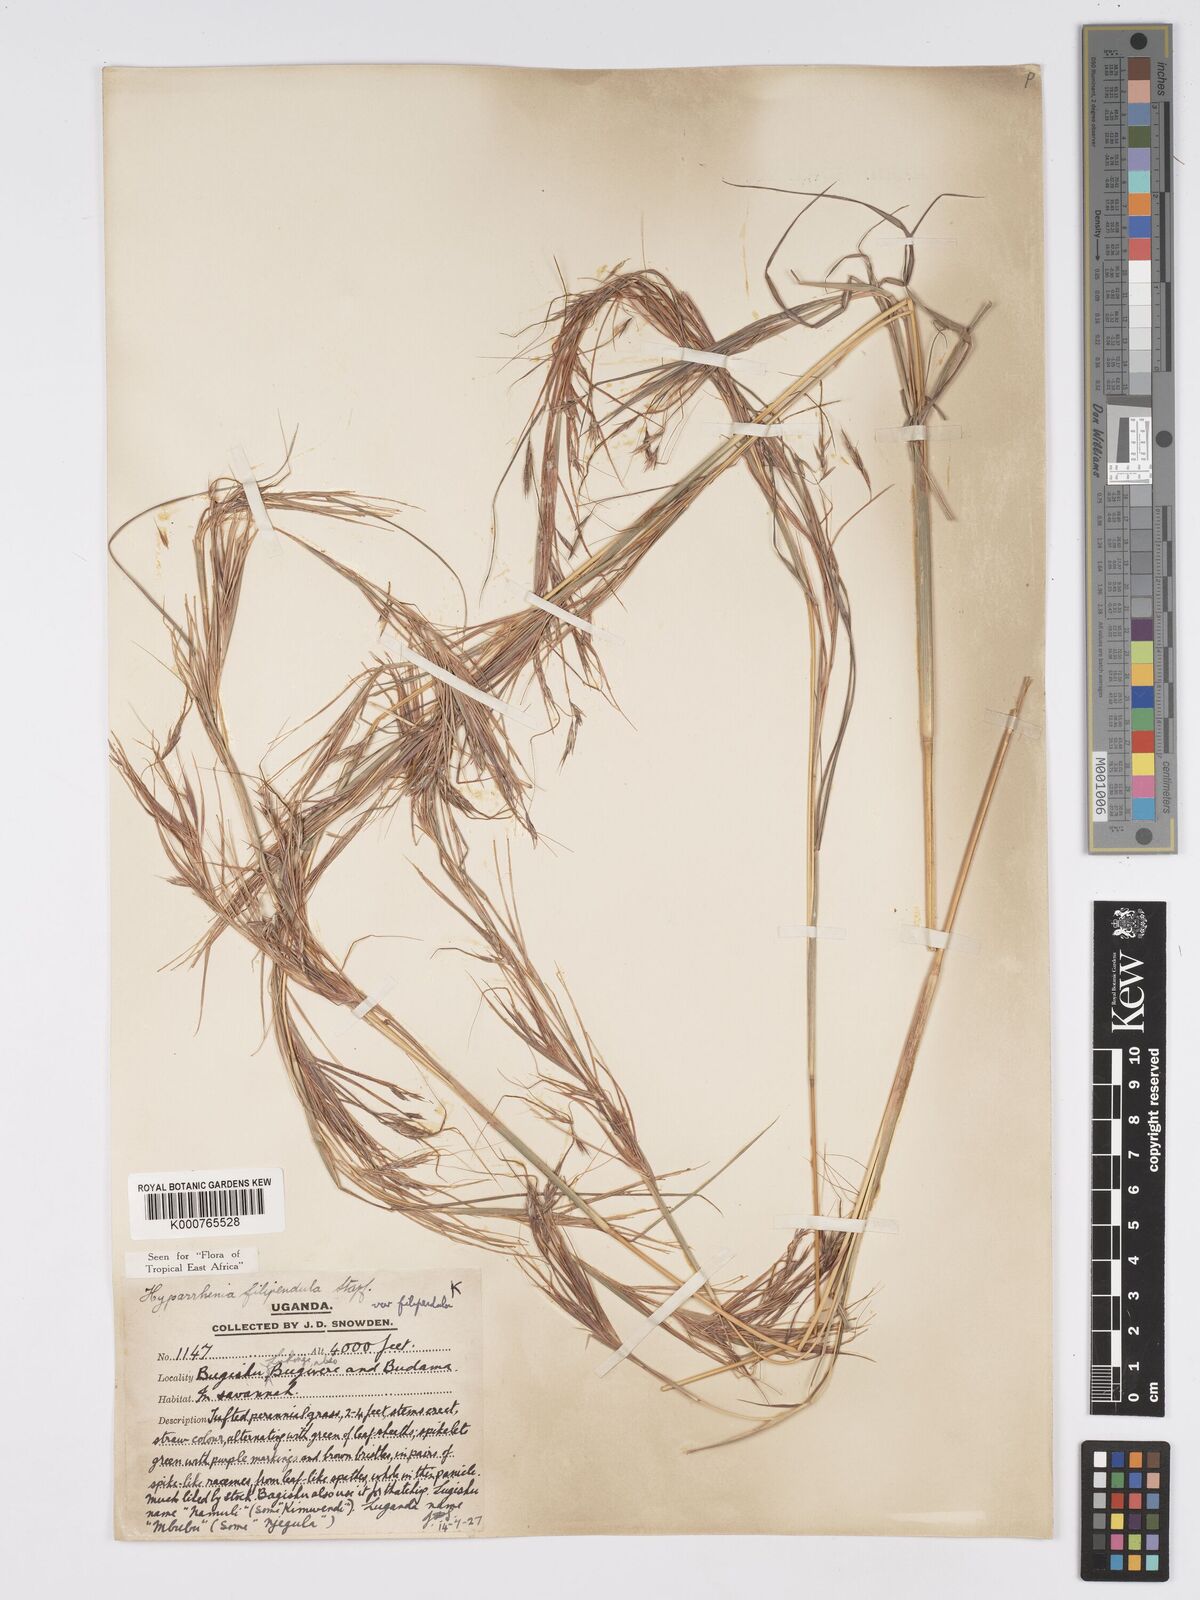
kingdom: Plantae
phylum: Tracheophyta
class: Liliopsida
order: Poales
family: Poaceae
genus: Hyparrhenia
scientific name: Hyparrhenia filipendula
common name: Tambookie grass
